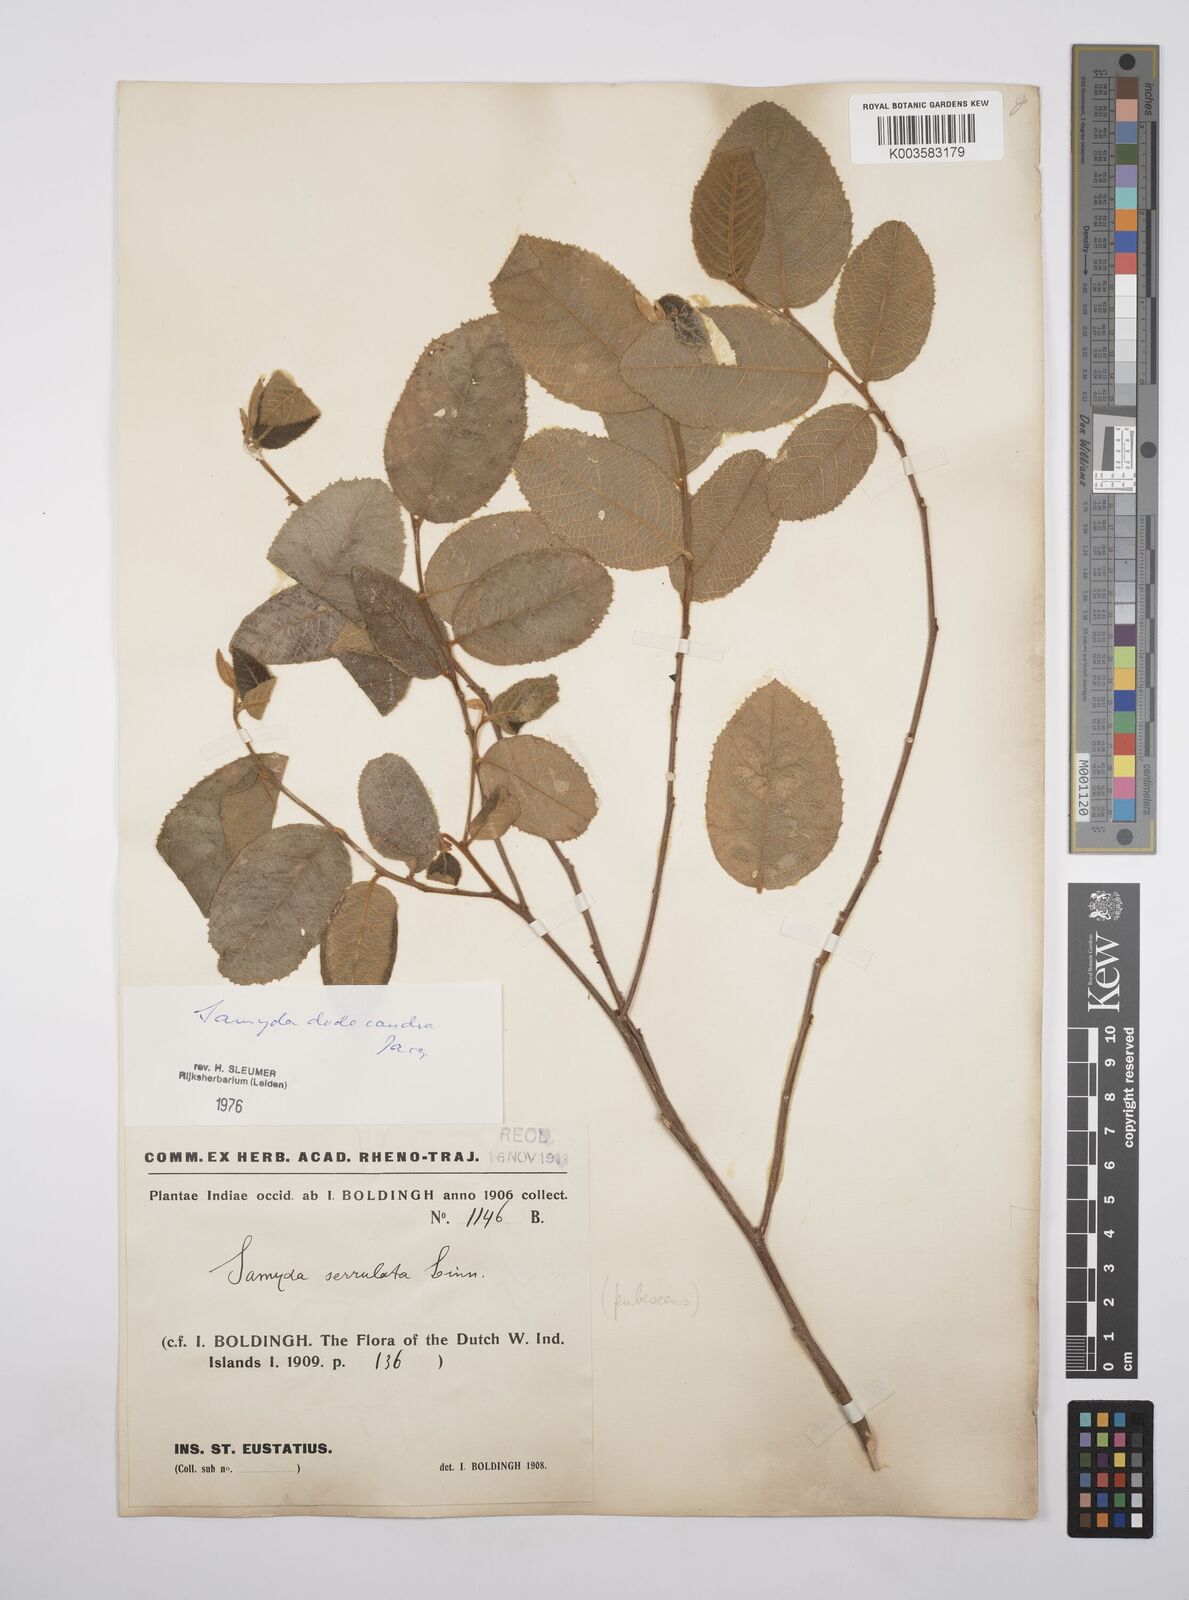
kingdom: Plantae
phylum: Tracheophyta
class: Magnoliopsida
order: Malpighiales
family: Salicaceae
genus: Casearia
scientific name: Casearia dodecandra
